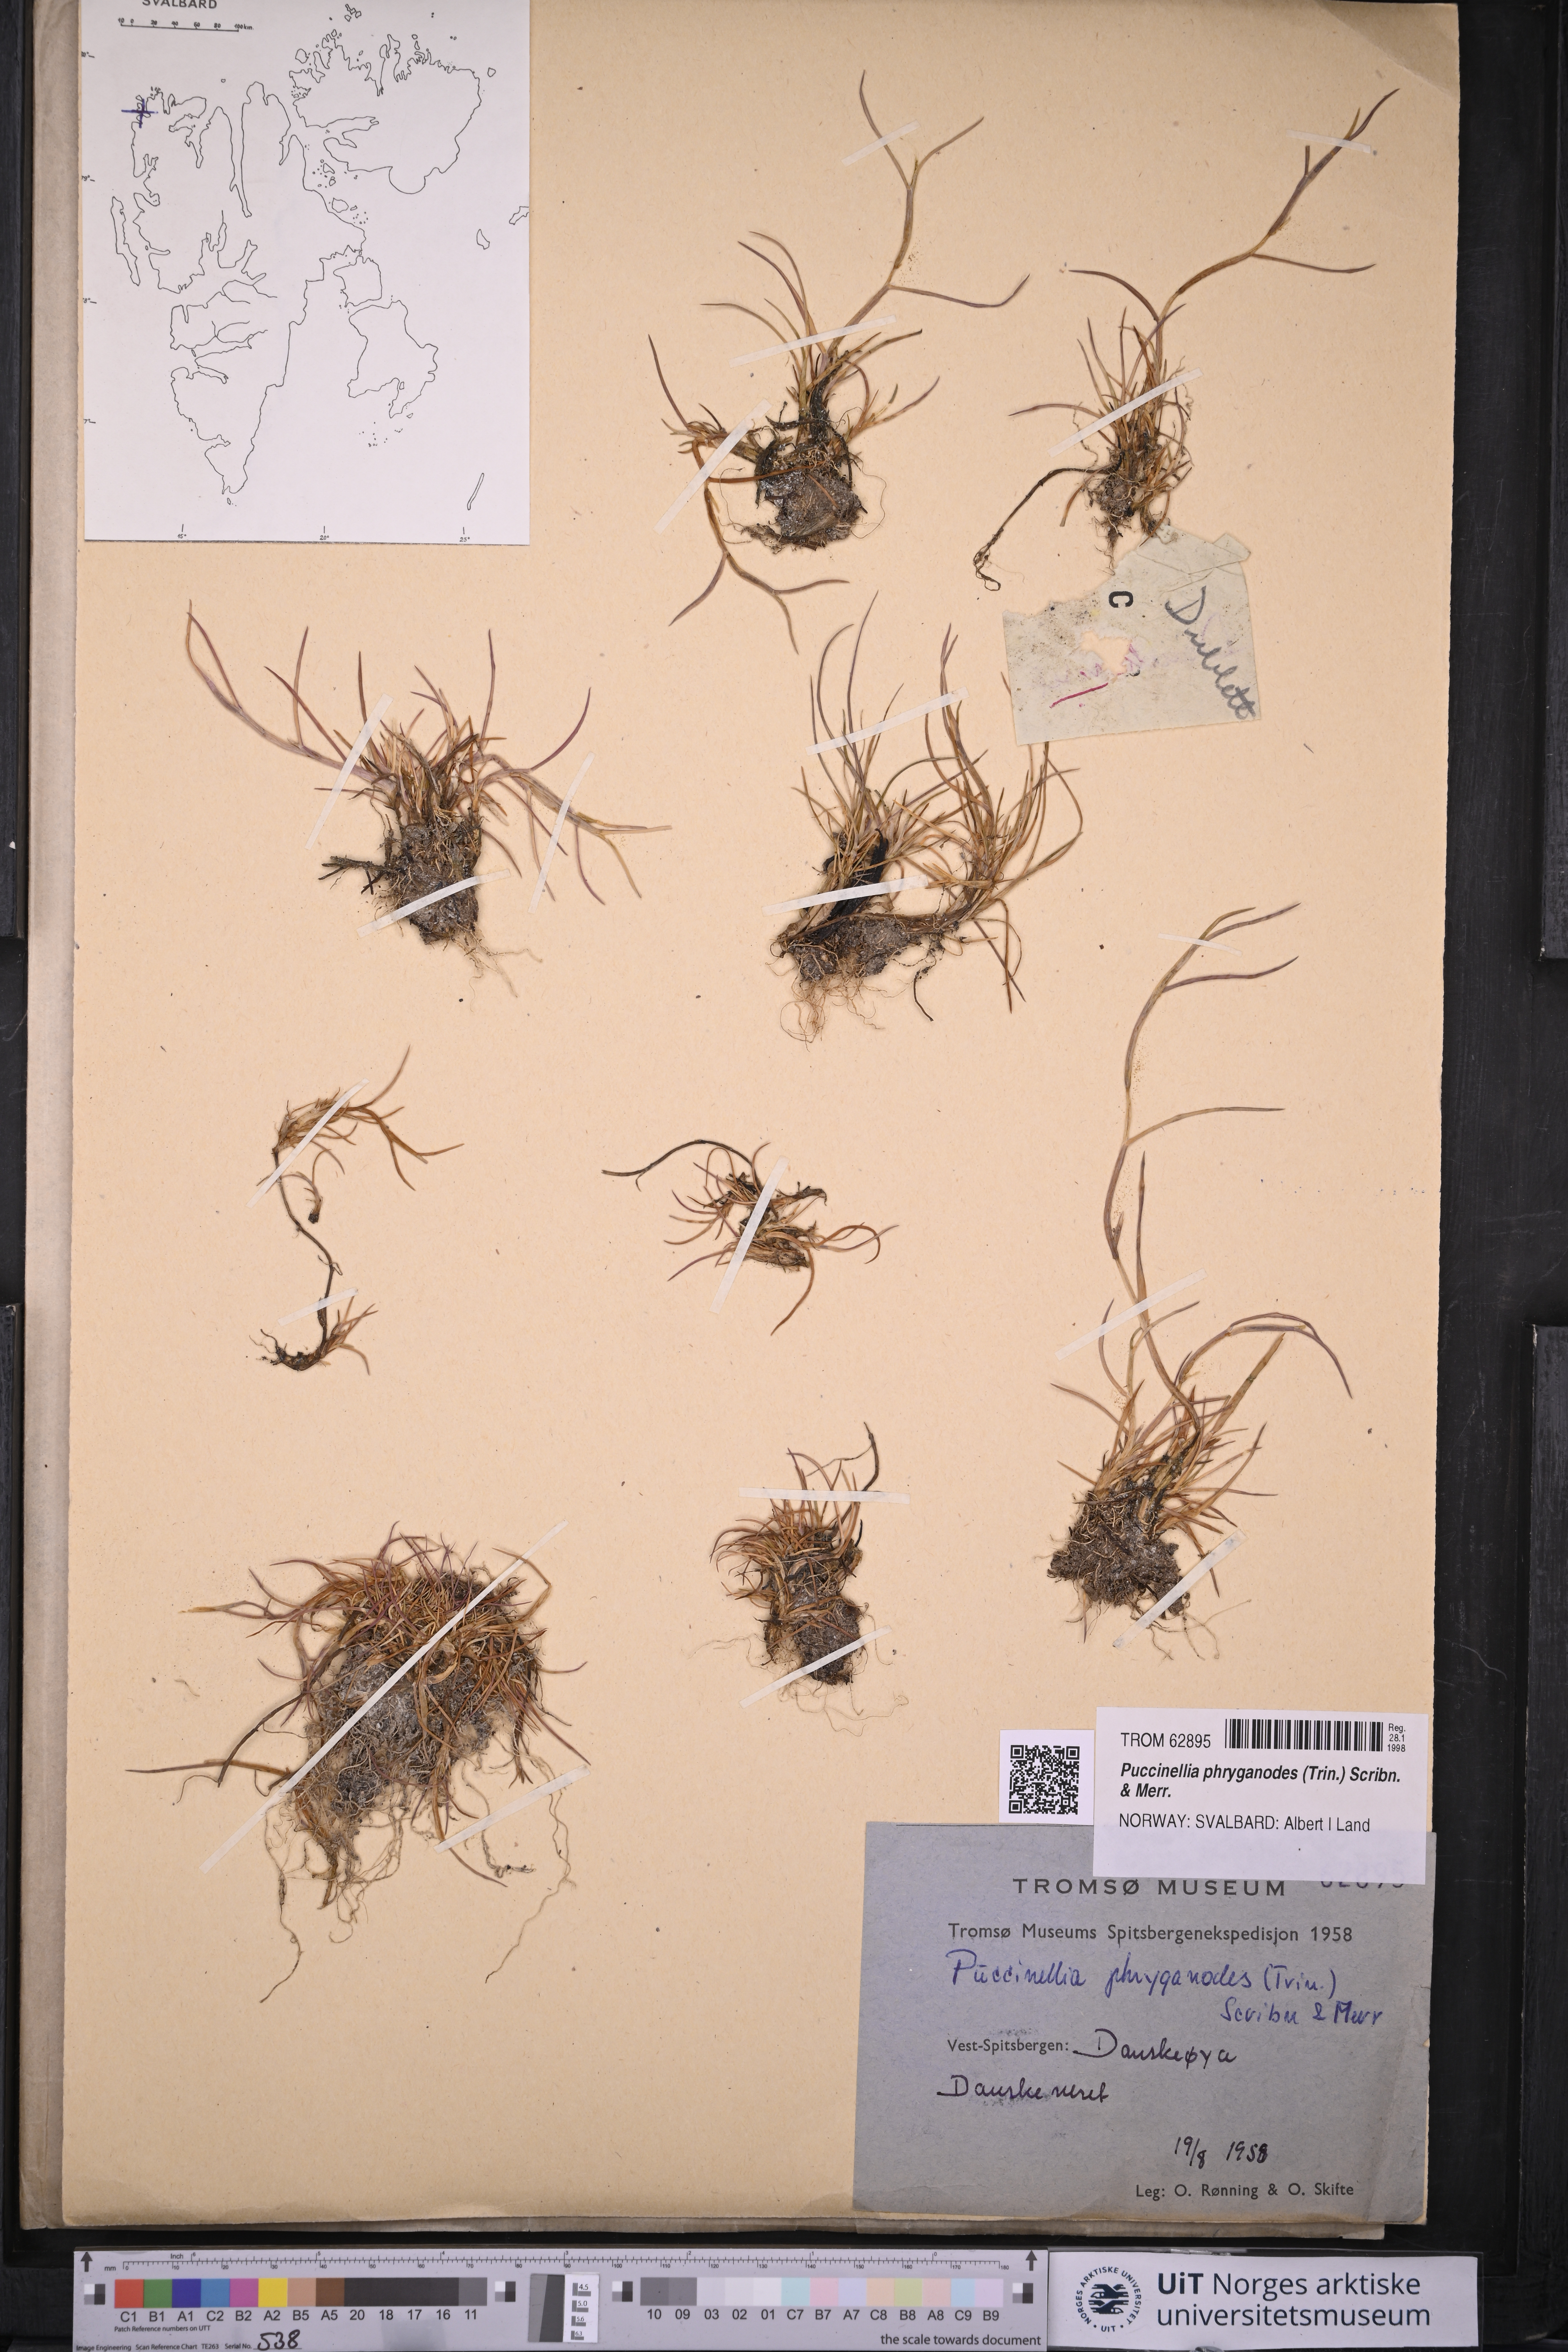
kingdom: Plantae
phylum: Tracheophyta
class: Liliopsida
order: Poales
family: Poaceae
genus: Puccinellia
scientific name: Puccinellia phryganodes
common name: Creeping alkaligrass
